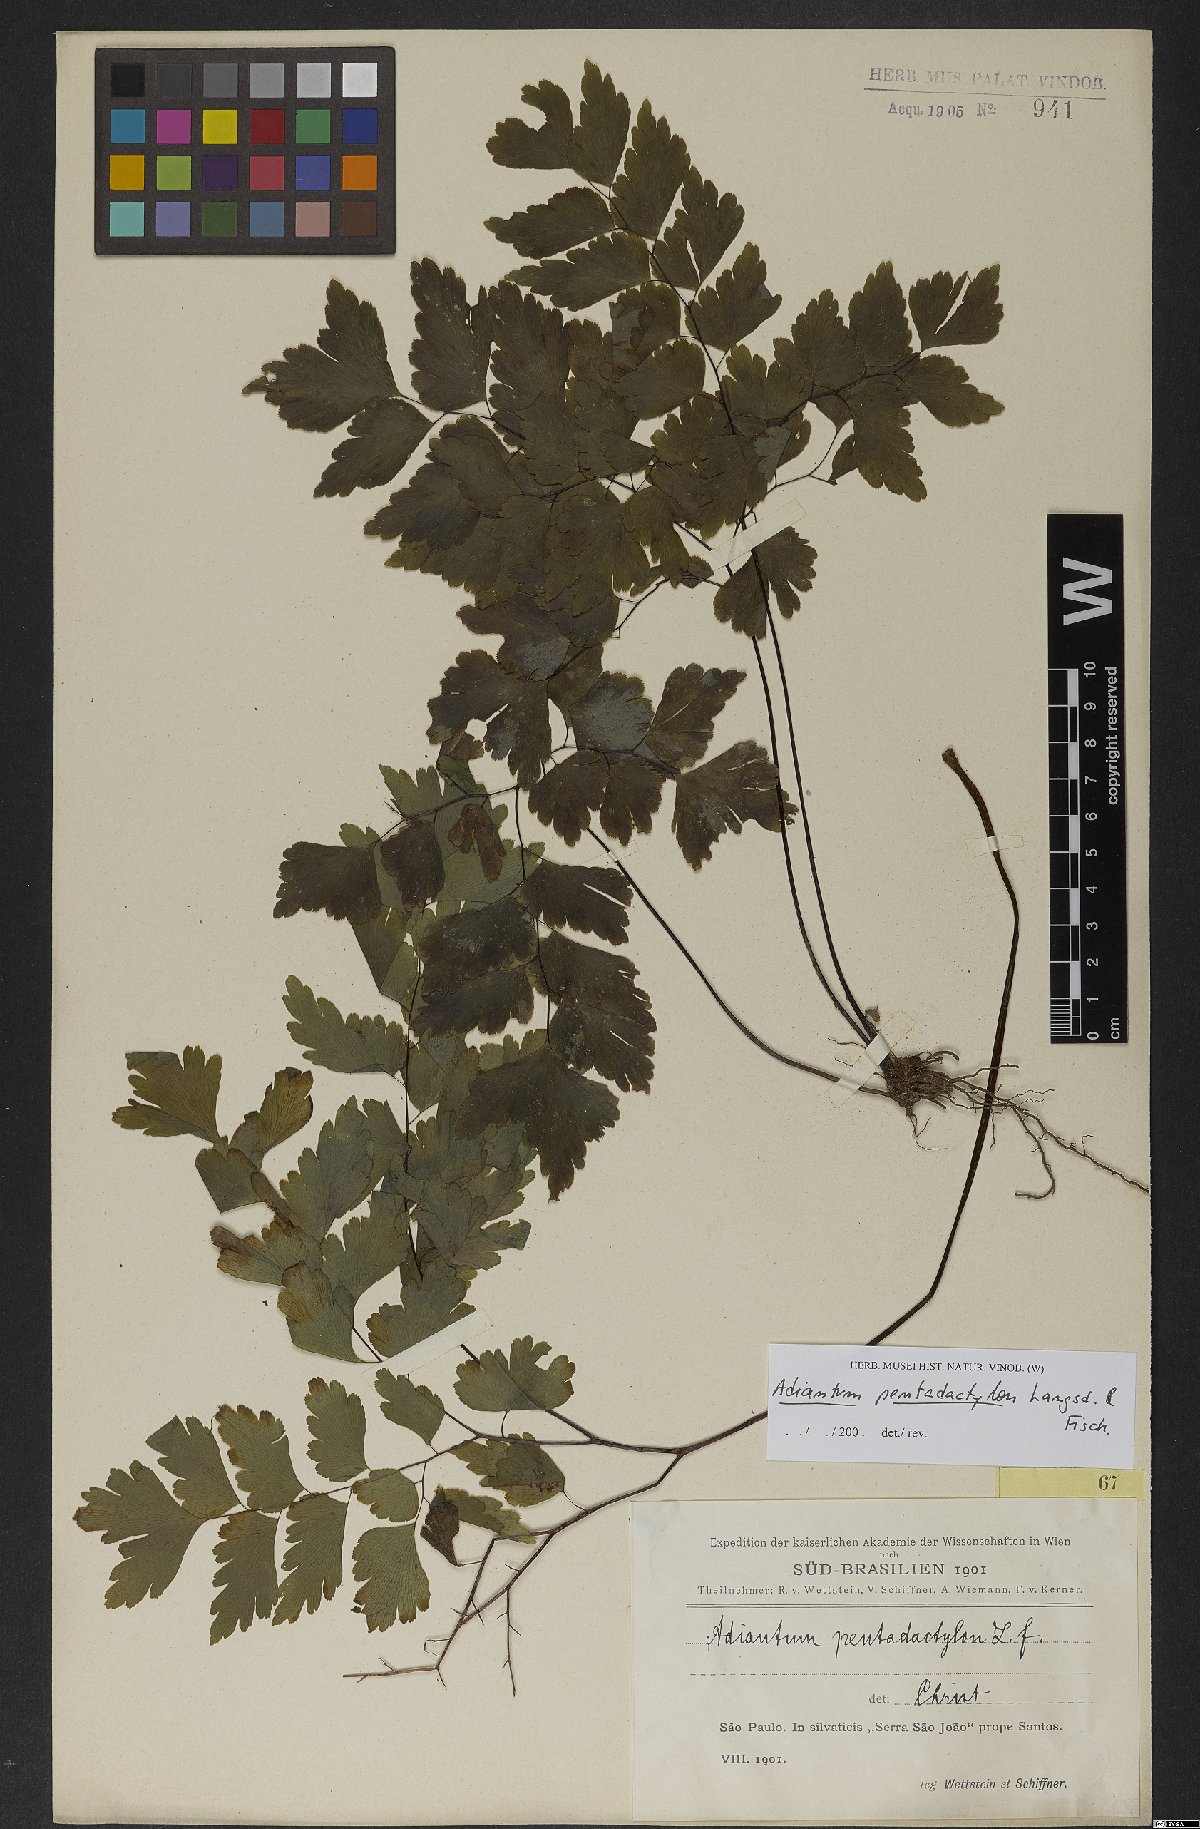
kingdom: Plantae
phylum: Tracheophyta
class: Polypodiopsida
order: Polypodiales
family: Pteridaceae
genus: Adiantum
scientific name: Adiantum pentadactylon
